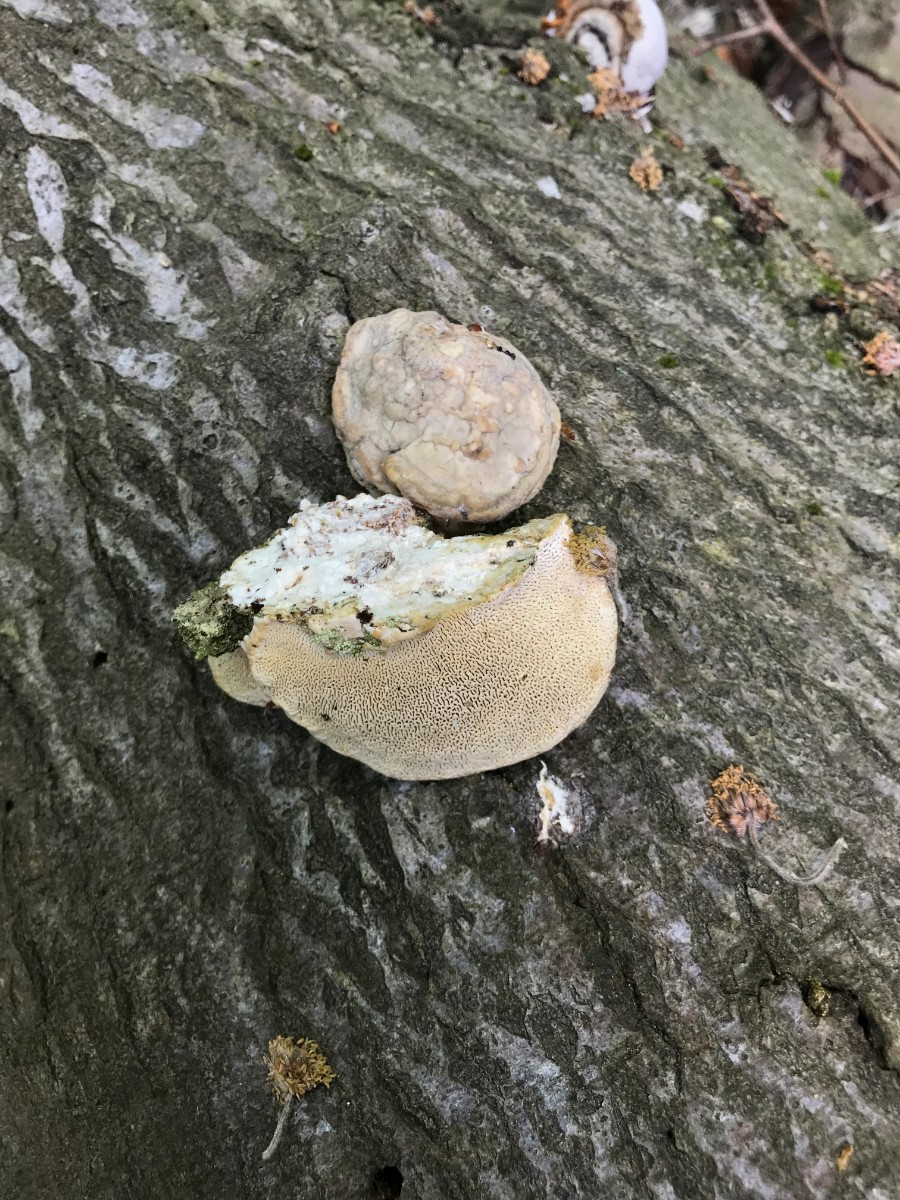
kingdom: Fungi
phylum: Basidiomycota
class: Agaricomycetes
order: Polyporales
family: Polyporaceae
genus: Trametes
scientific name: Trametes gibbosa
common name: puklet læderporesvamp
